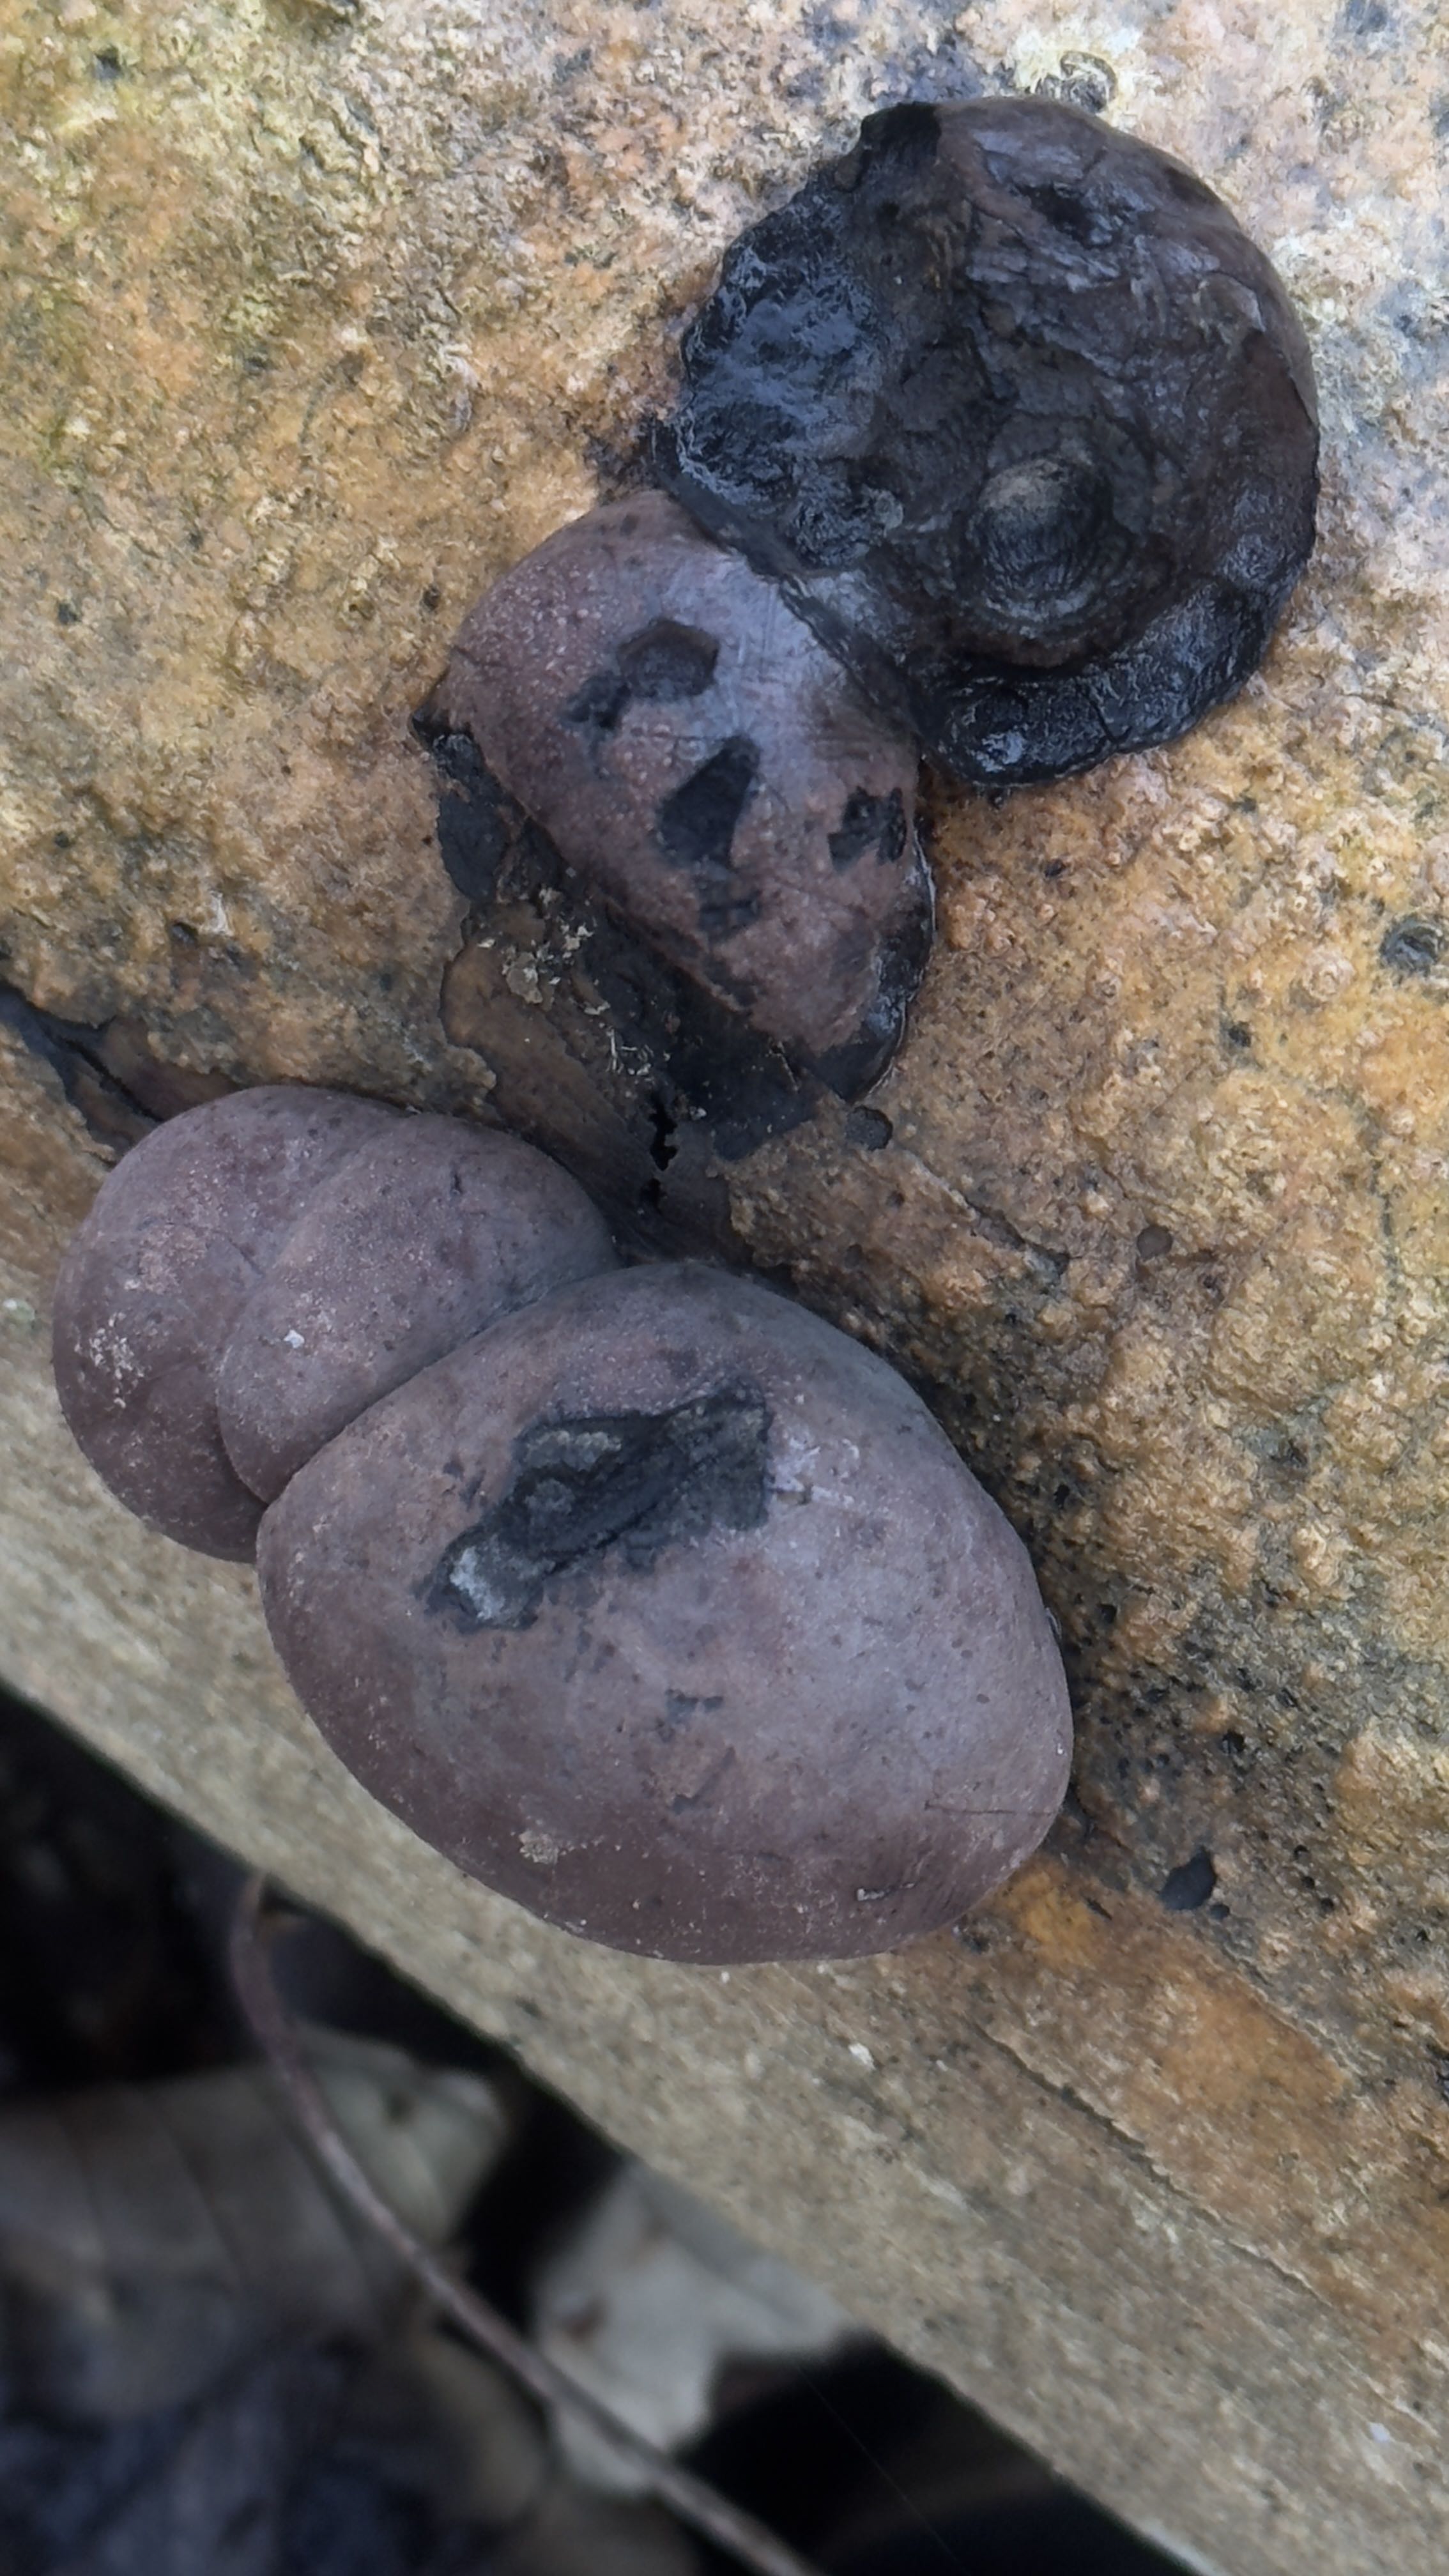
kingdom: Fungi
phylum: Ascomycota
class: Sordariomycetes
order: Xylariales
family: Hypoxylaceae
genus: Daldinia
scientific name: Daldinia concentrica
